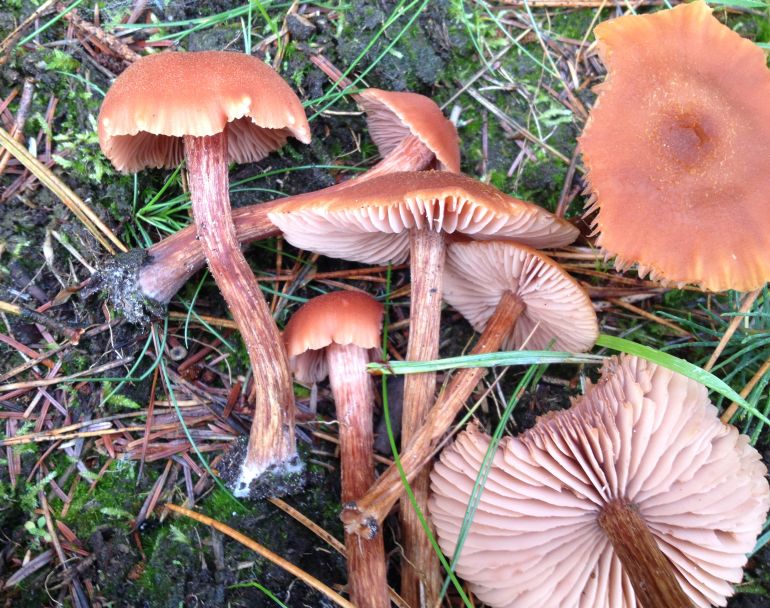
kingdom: Fungi
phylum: Basidiomycota
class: Agaricomycetes
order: Agaricales
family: Hydnangiaceae
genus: Laccaria
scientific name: Laccaria bicolor
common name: tvefarvet ametysthat
